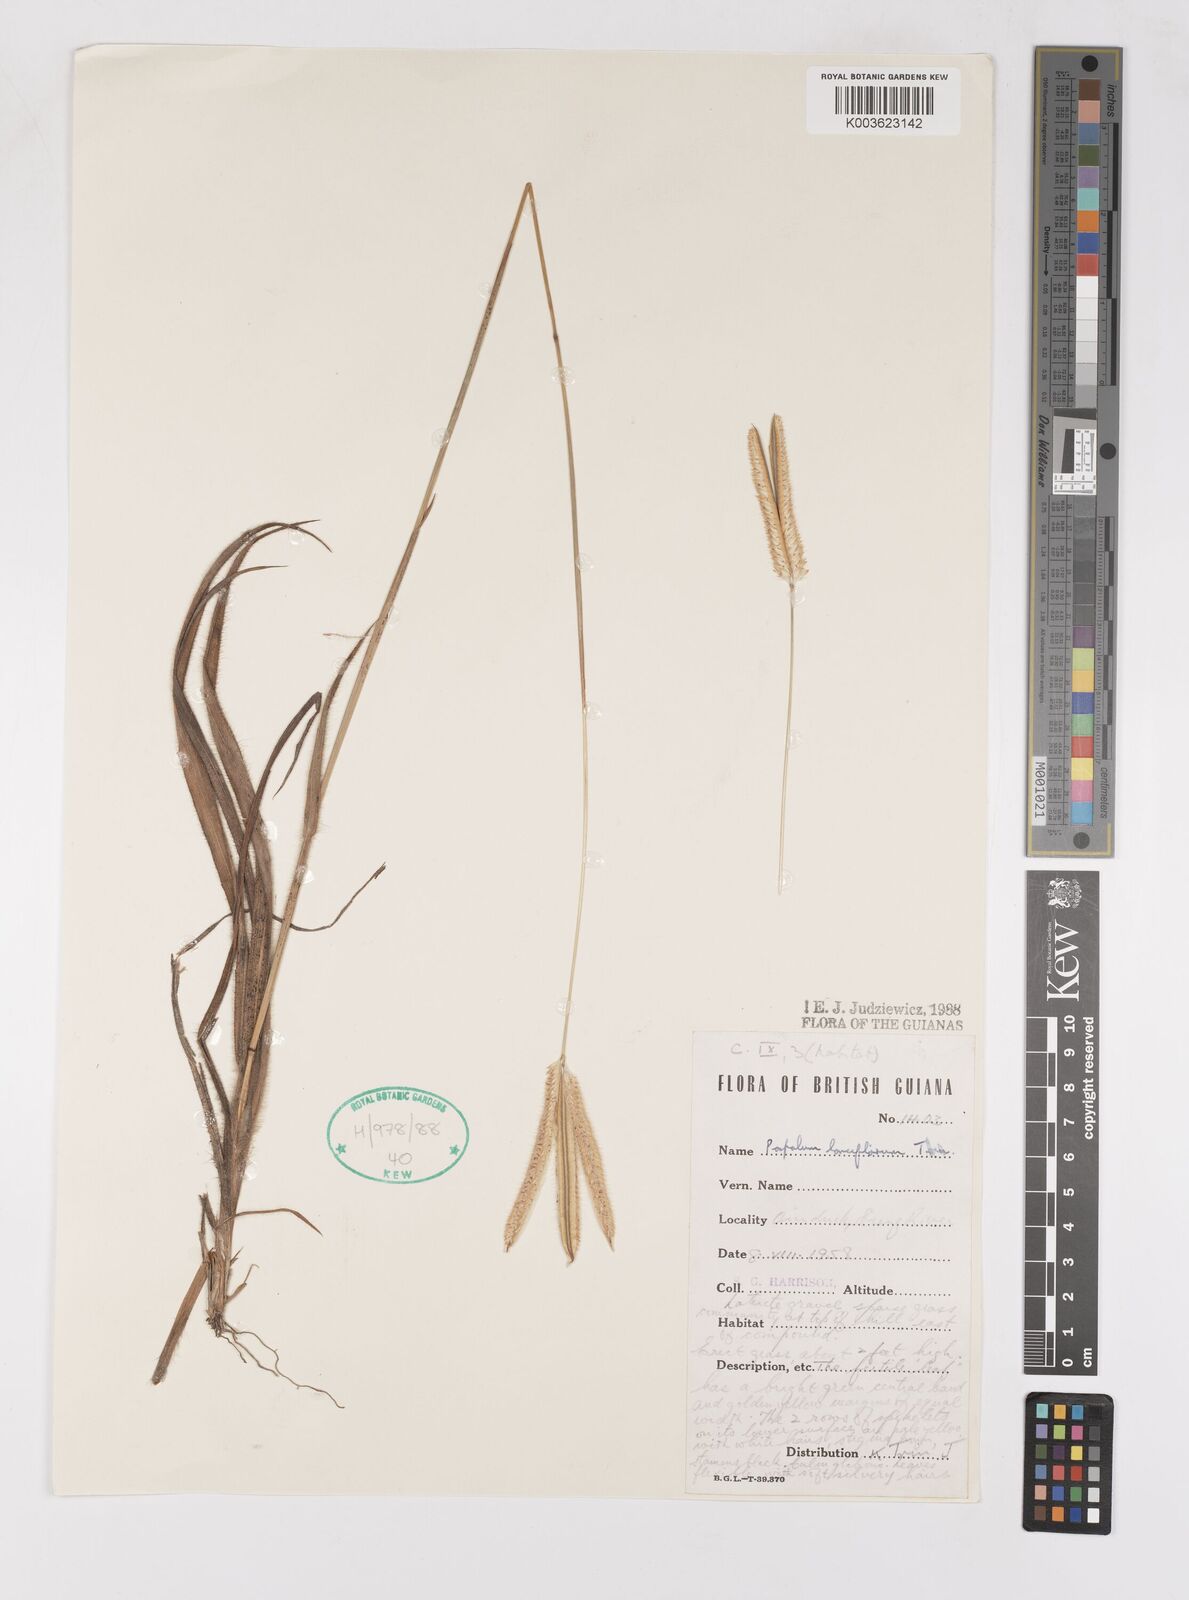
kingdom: Plantae
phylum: Tracheophyta
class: Liliopsida
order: Poales
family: Poaceae
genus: Paspalum
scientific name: Paspalum lanciflorum
